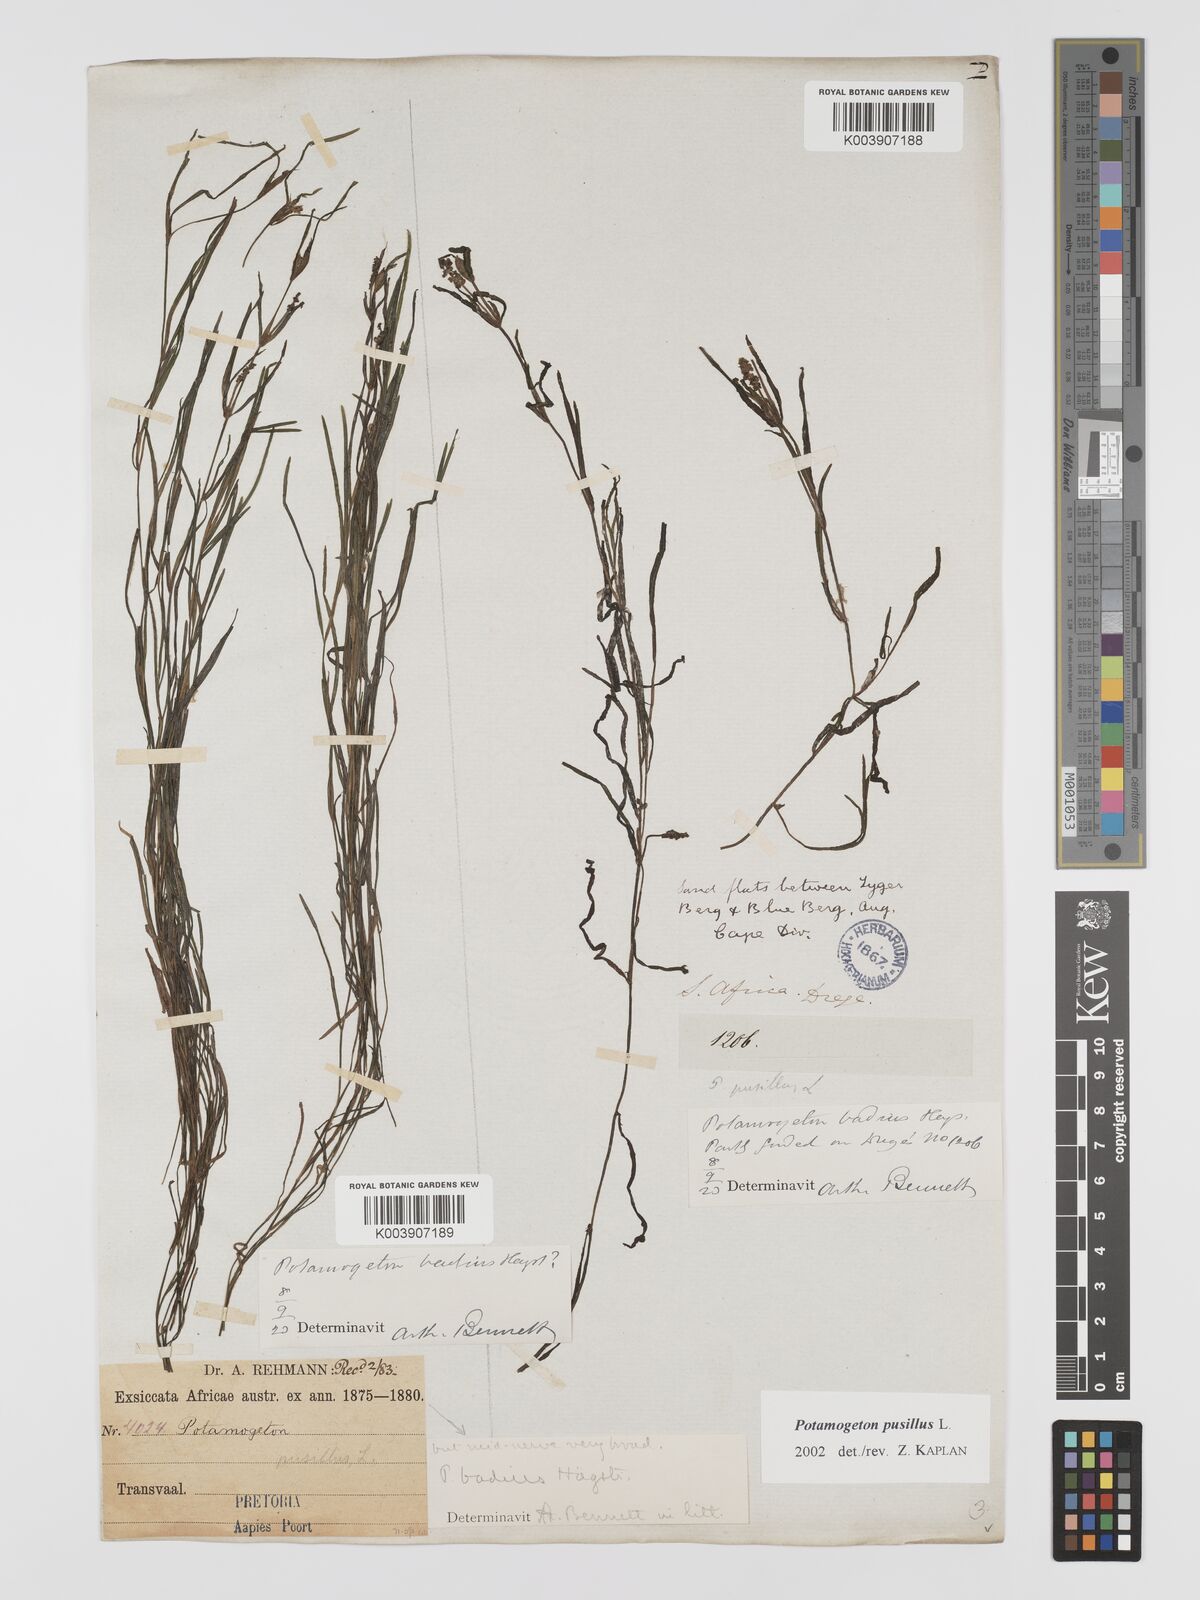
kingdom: Plantae
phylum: Tracheophyta
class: Liliopsida
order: Alismatales
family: Potamogetonaceae
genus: Potamogeton
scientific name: Potamogeton pusillus
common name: Lesser pondweed
